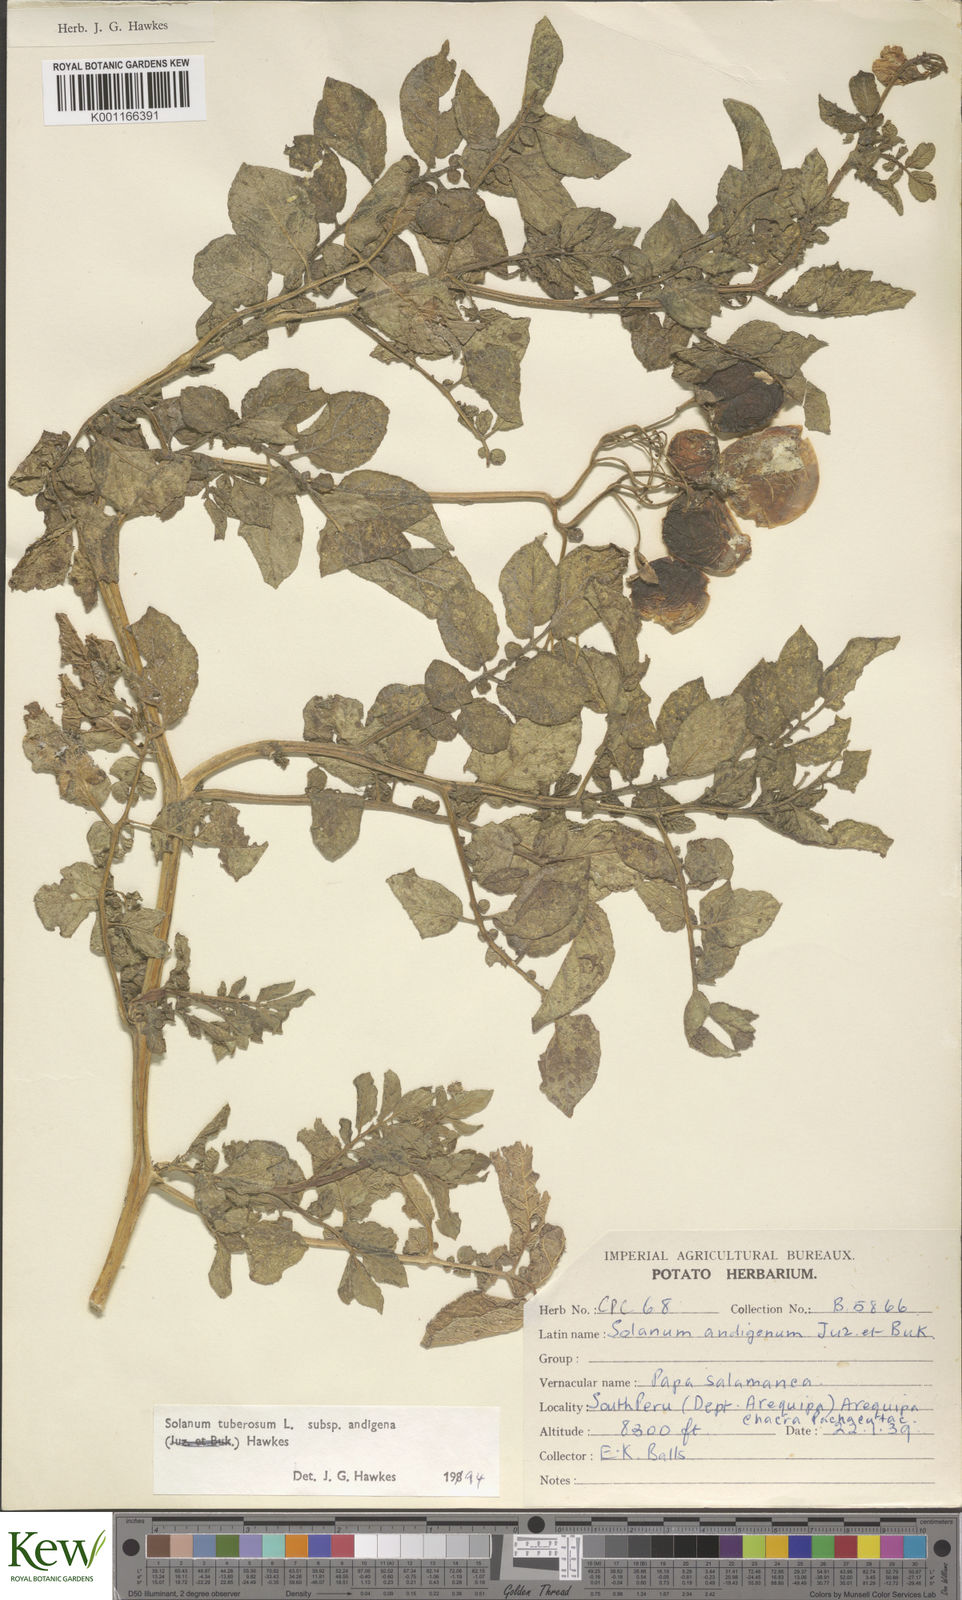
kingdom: Plantae
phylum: Tracheophyta
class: Magnoliopsida
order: Solanales
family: Solanaceae
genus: Solanum
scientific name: Solanum tuberosum
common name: Potato
